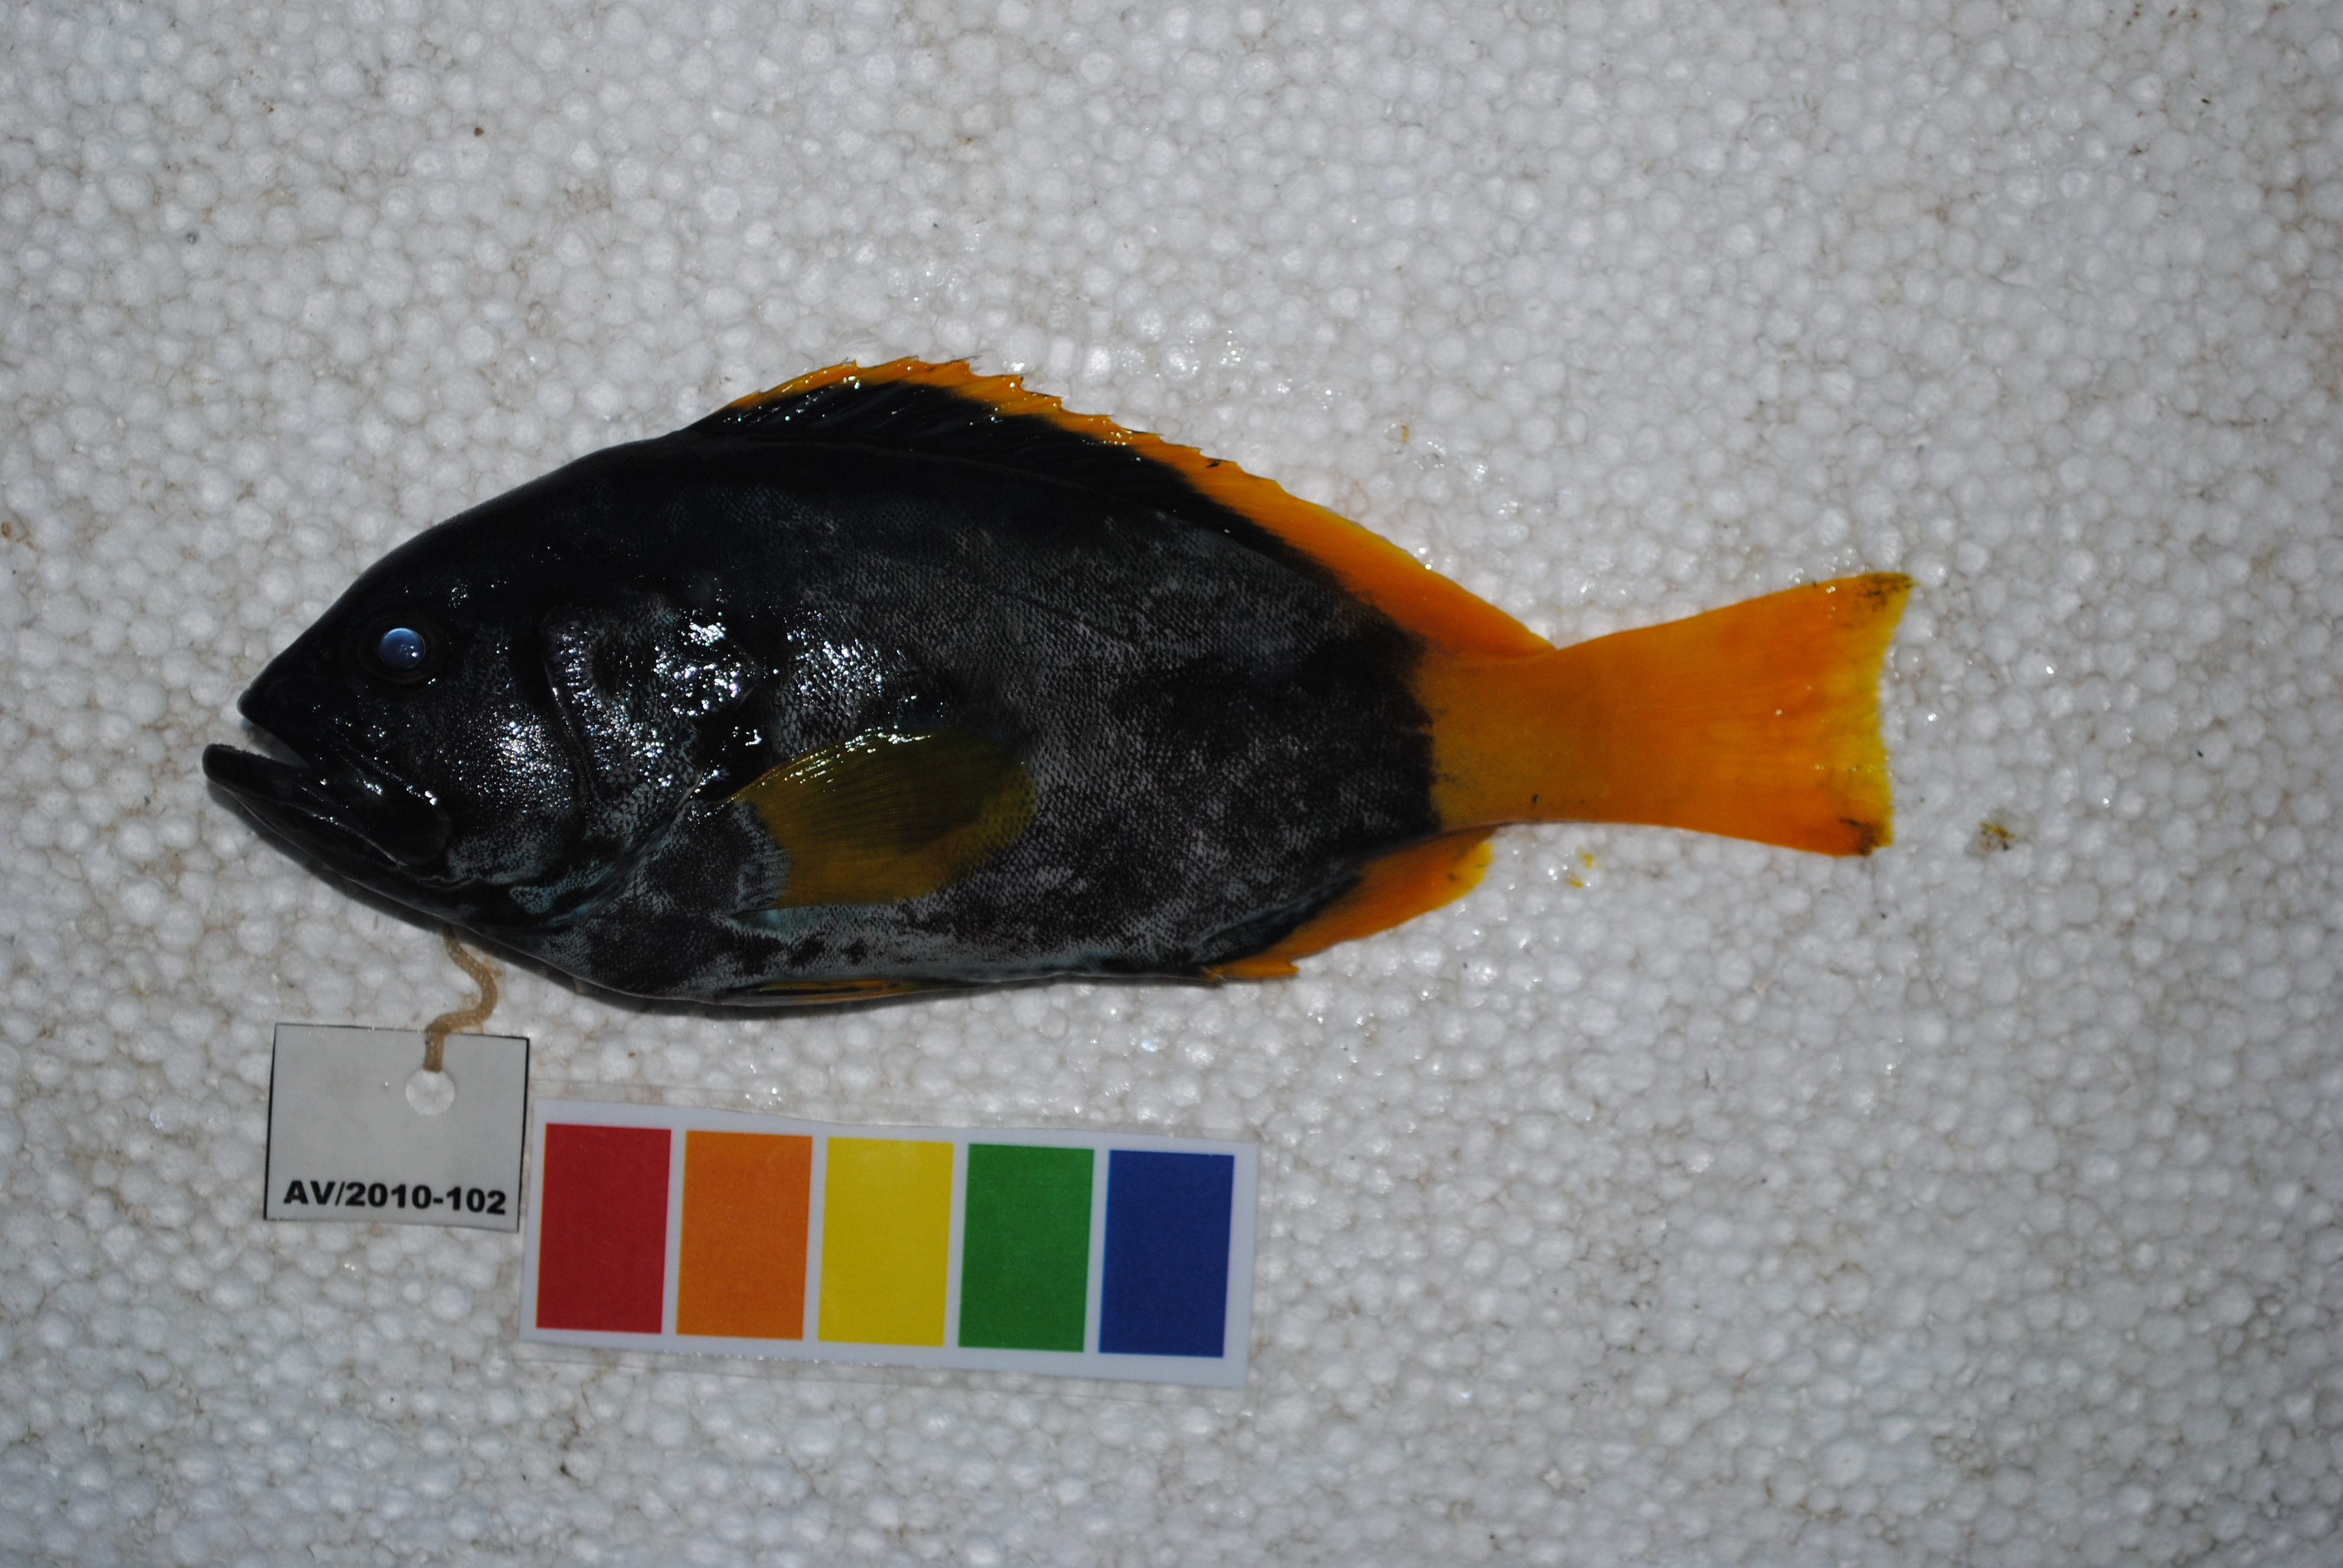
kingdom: Animalia
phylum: Chordata
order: Perciformes
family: Serranidae
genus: Epinephelus
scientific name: Epinephelus flavocaeruleus
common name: Blue and yellow grouper
